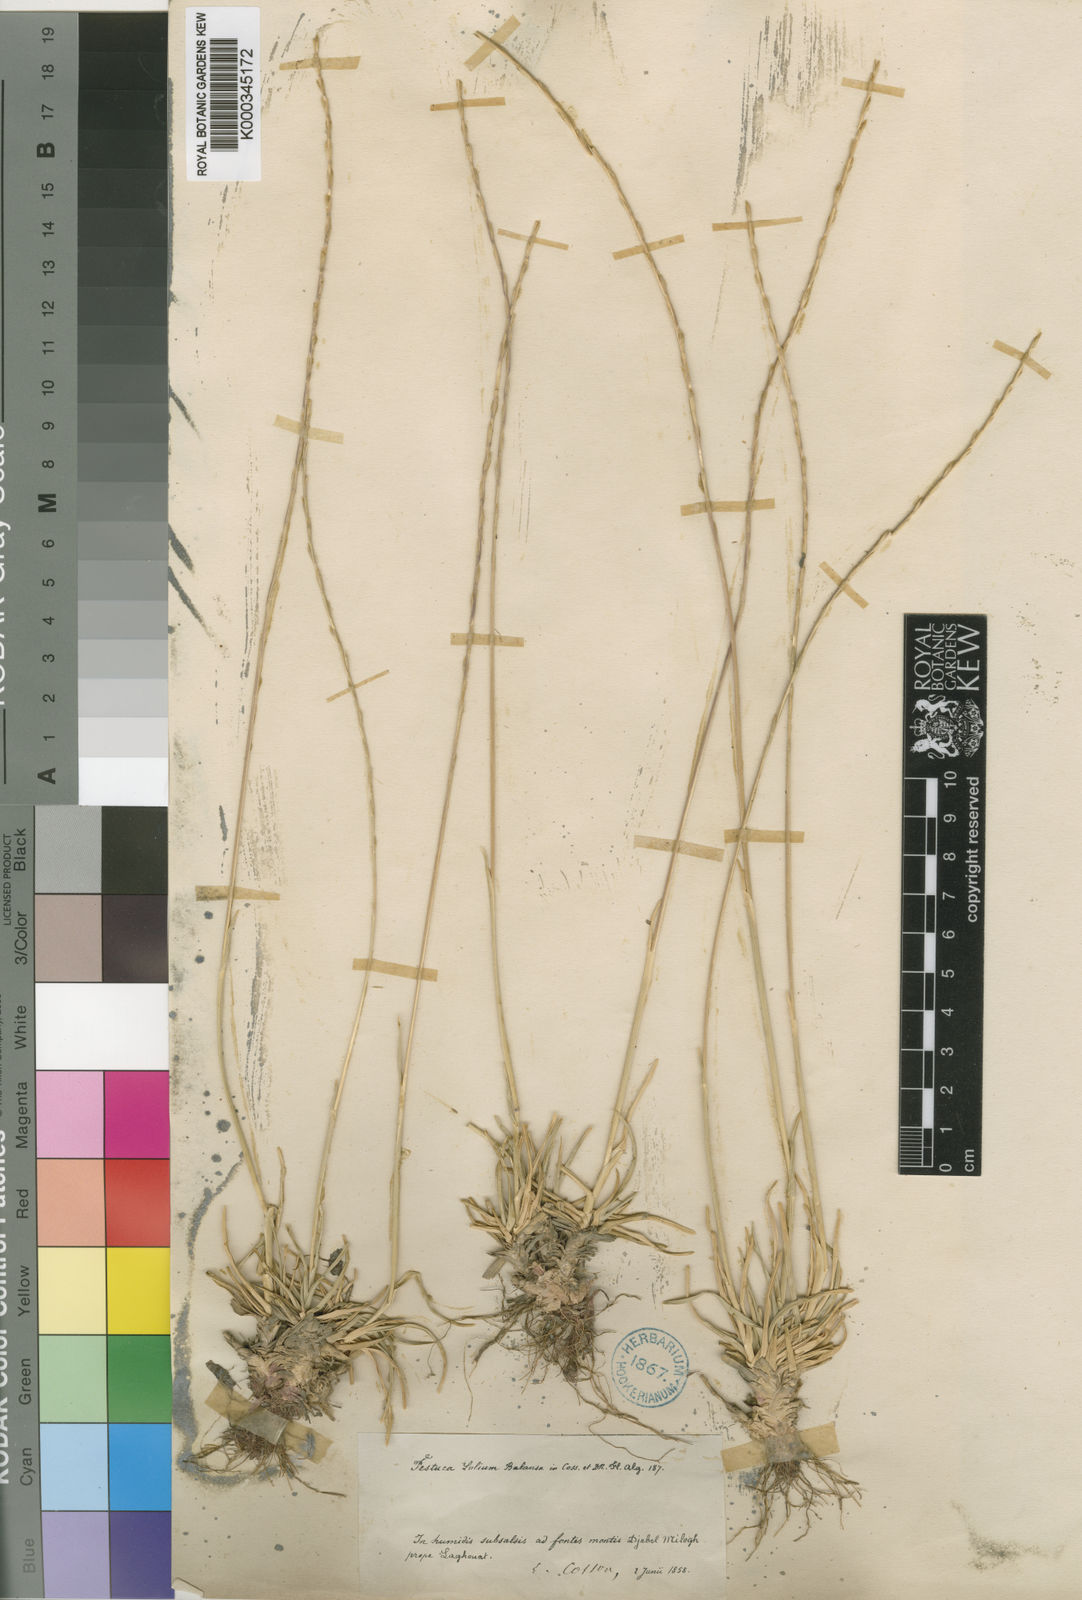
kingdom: Plantae
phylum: Tracheophyta
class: Liliopsida
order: Poales
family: Poaceae
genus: Agropyropsis
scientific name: Agropyropsis lolium
